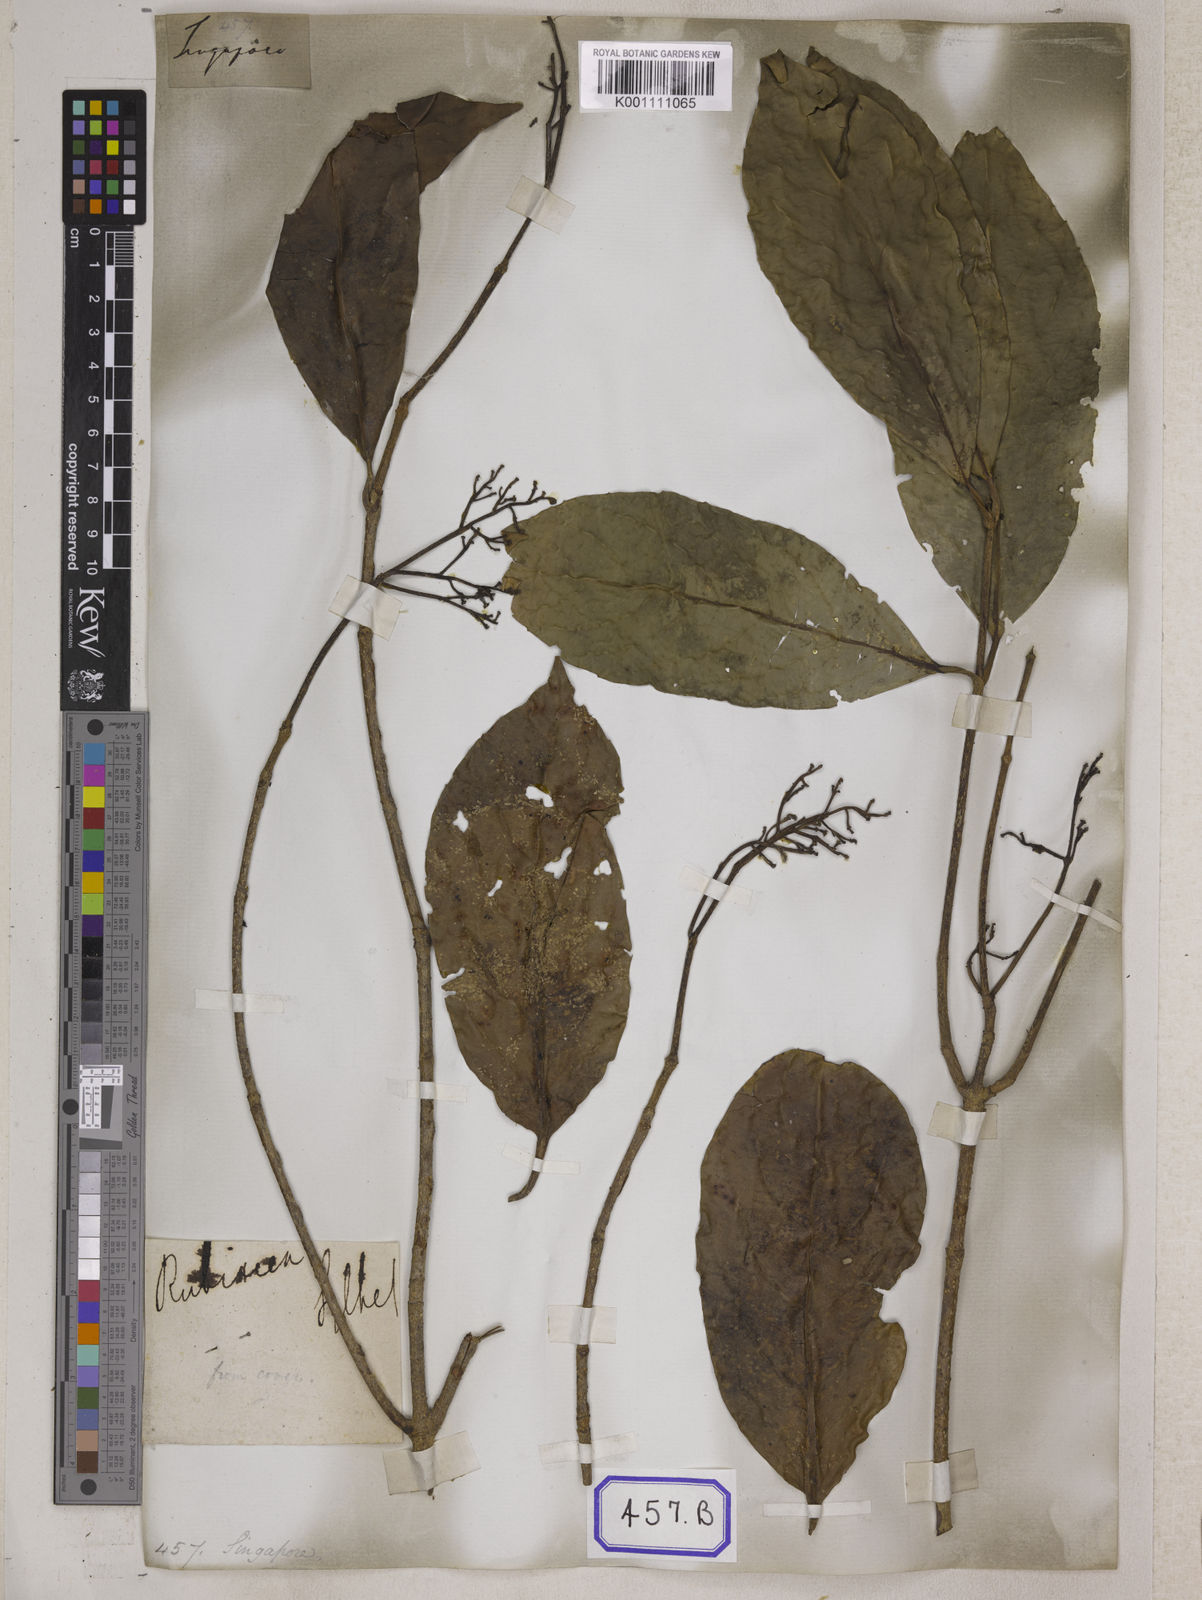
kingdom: Plantae
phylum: Tracheophyta
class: Magnoliopsida
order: Dipsacales
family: Viburnaceae
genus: Viburnum
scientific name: Viburnum
